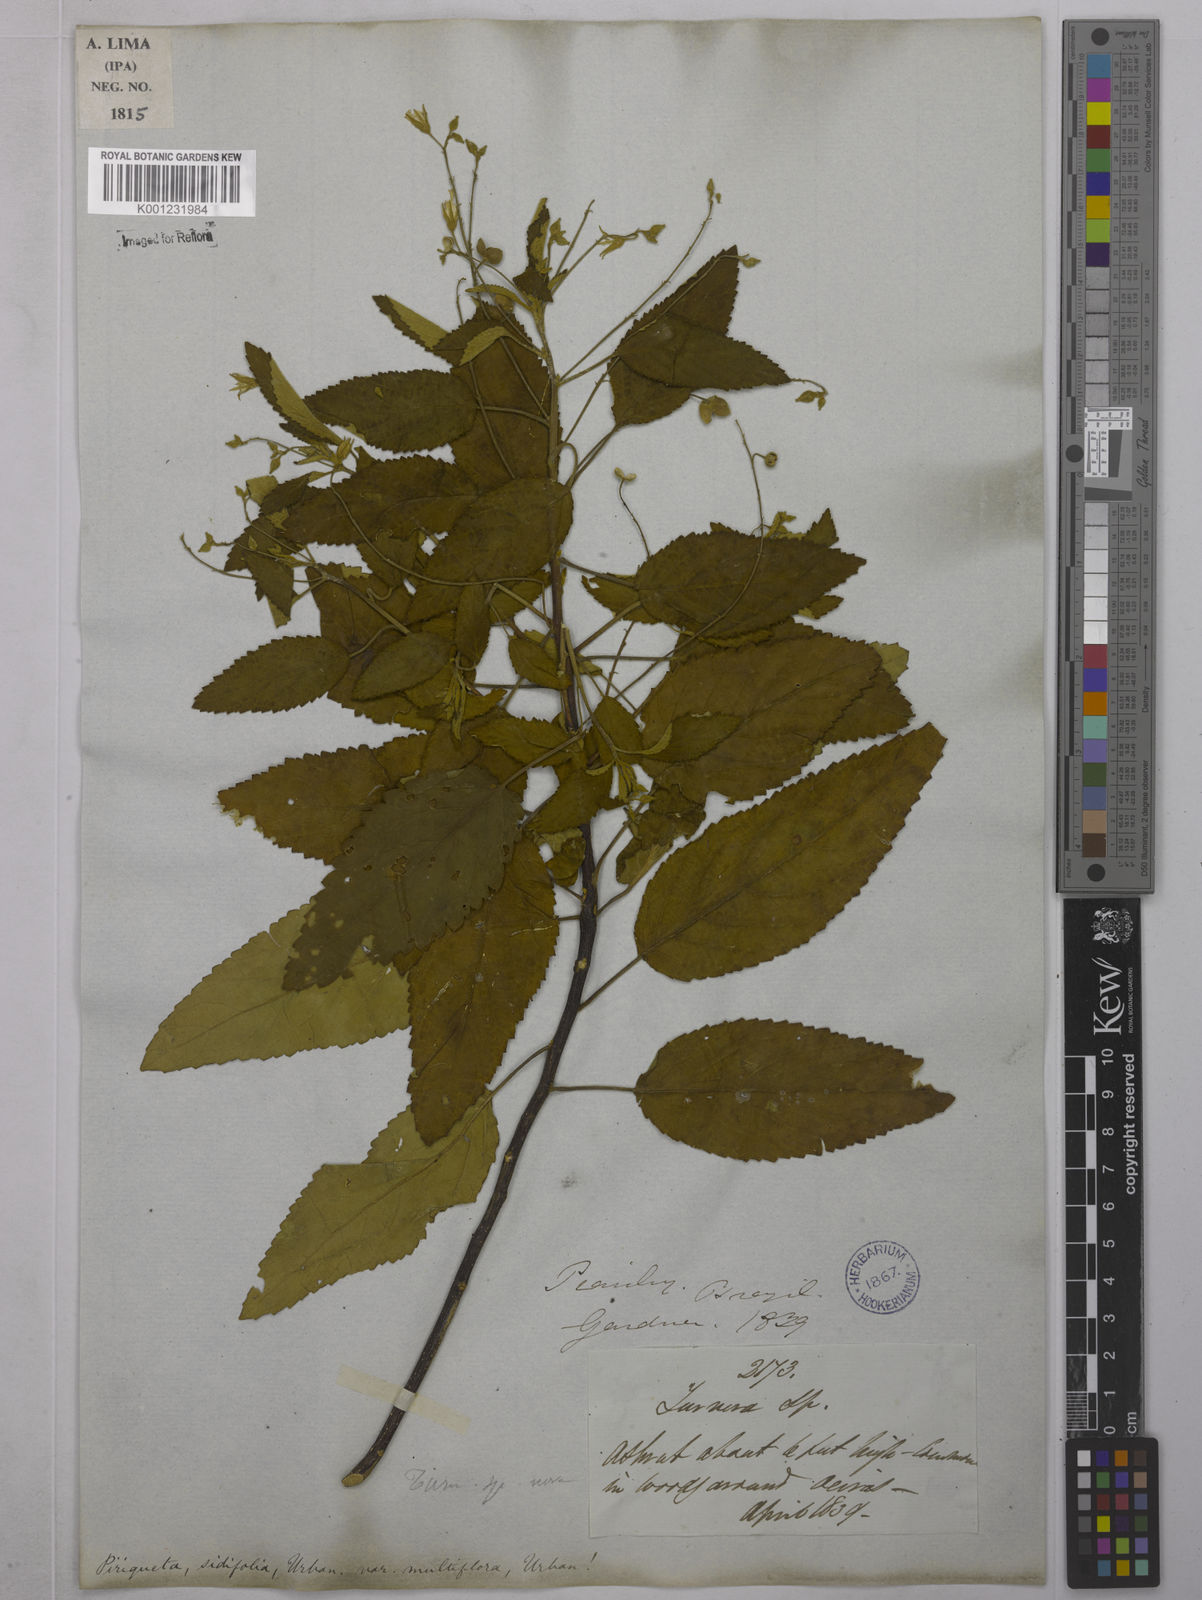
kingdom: Plantae
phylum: Tracheophyta
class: Magnoliopsida
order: Malpighiales
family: Turneraceae
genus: Piriqueta
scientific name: Piriqueta sidifolia
